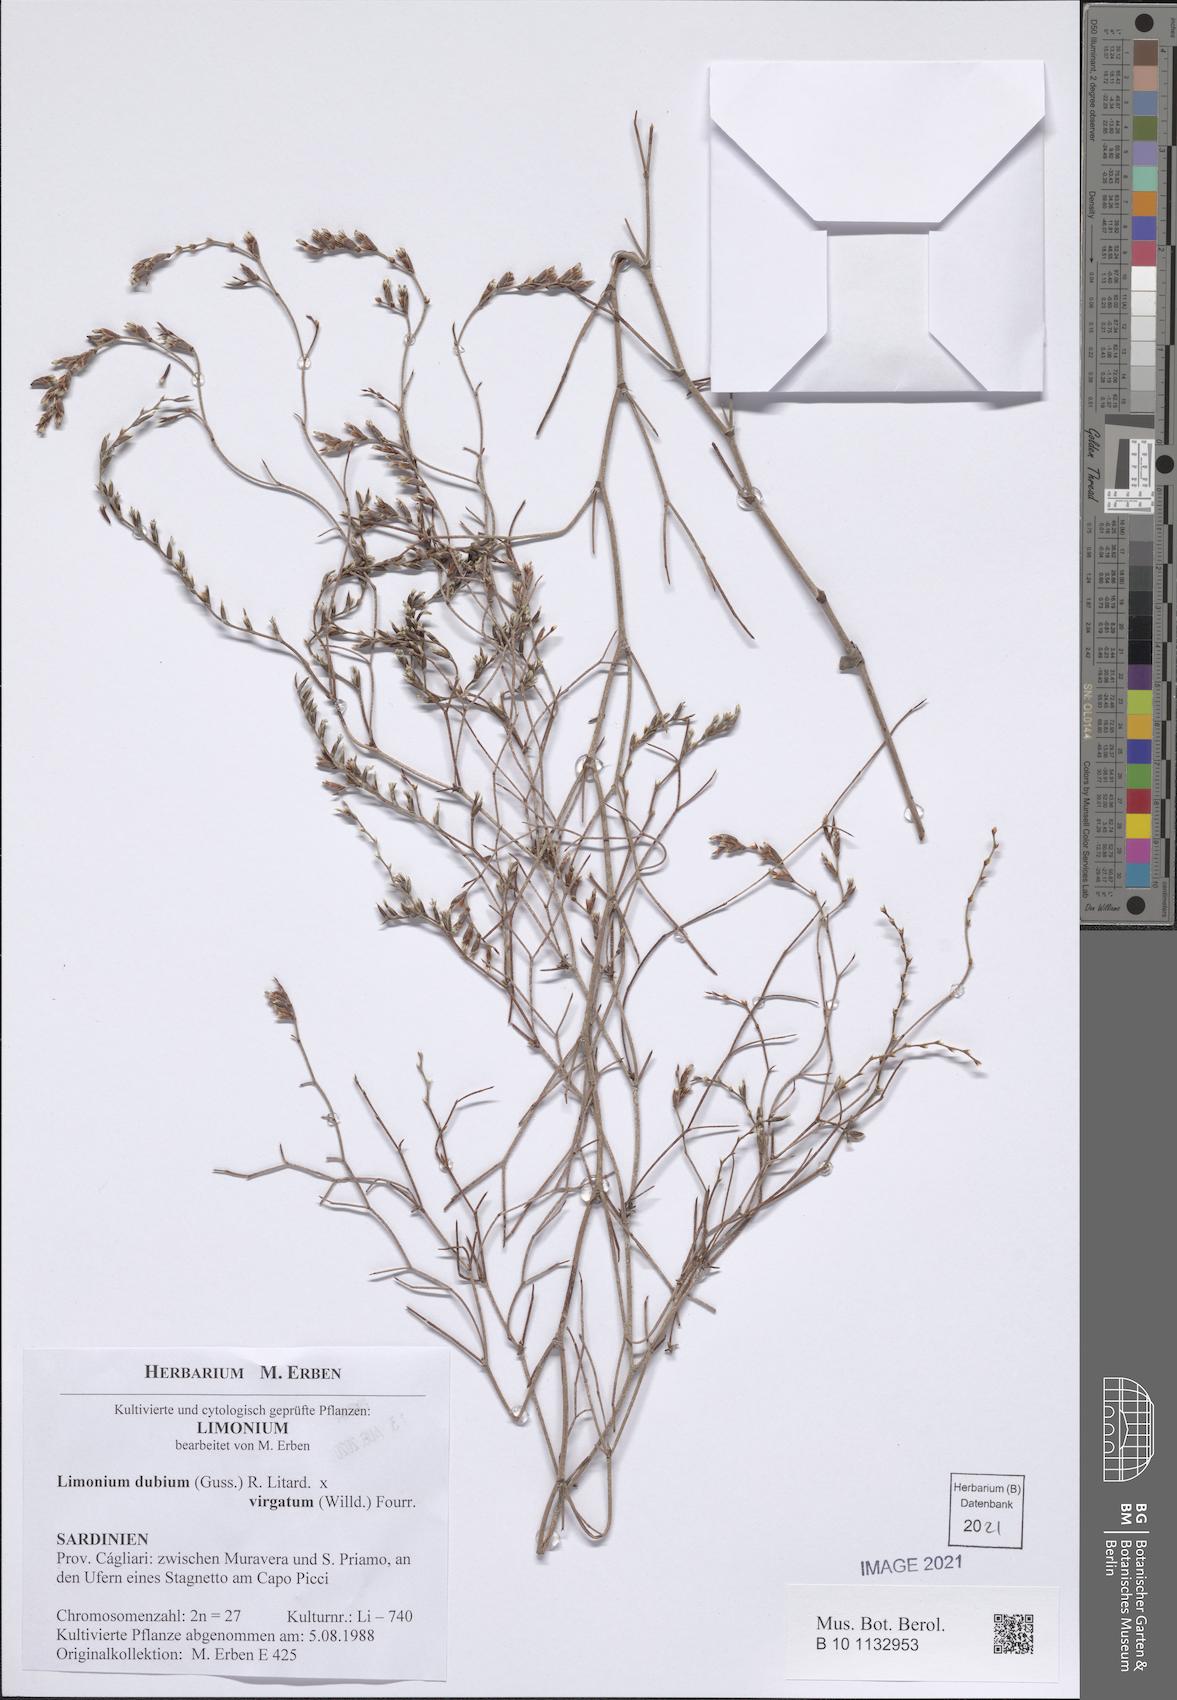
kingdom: Plantae
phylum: Tracheophyta
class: Magnoliopsida
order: Caryophyllales
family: Plumbaginaceae
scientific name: Plumbaginaceae
